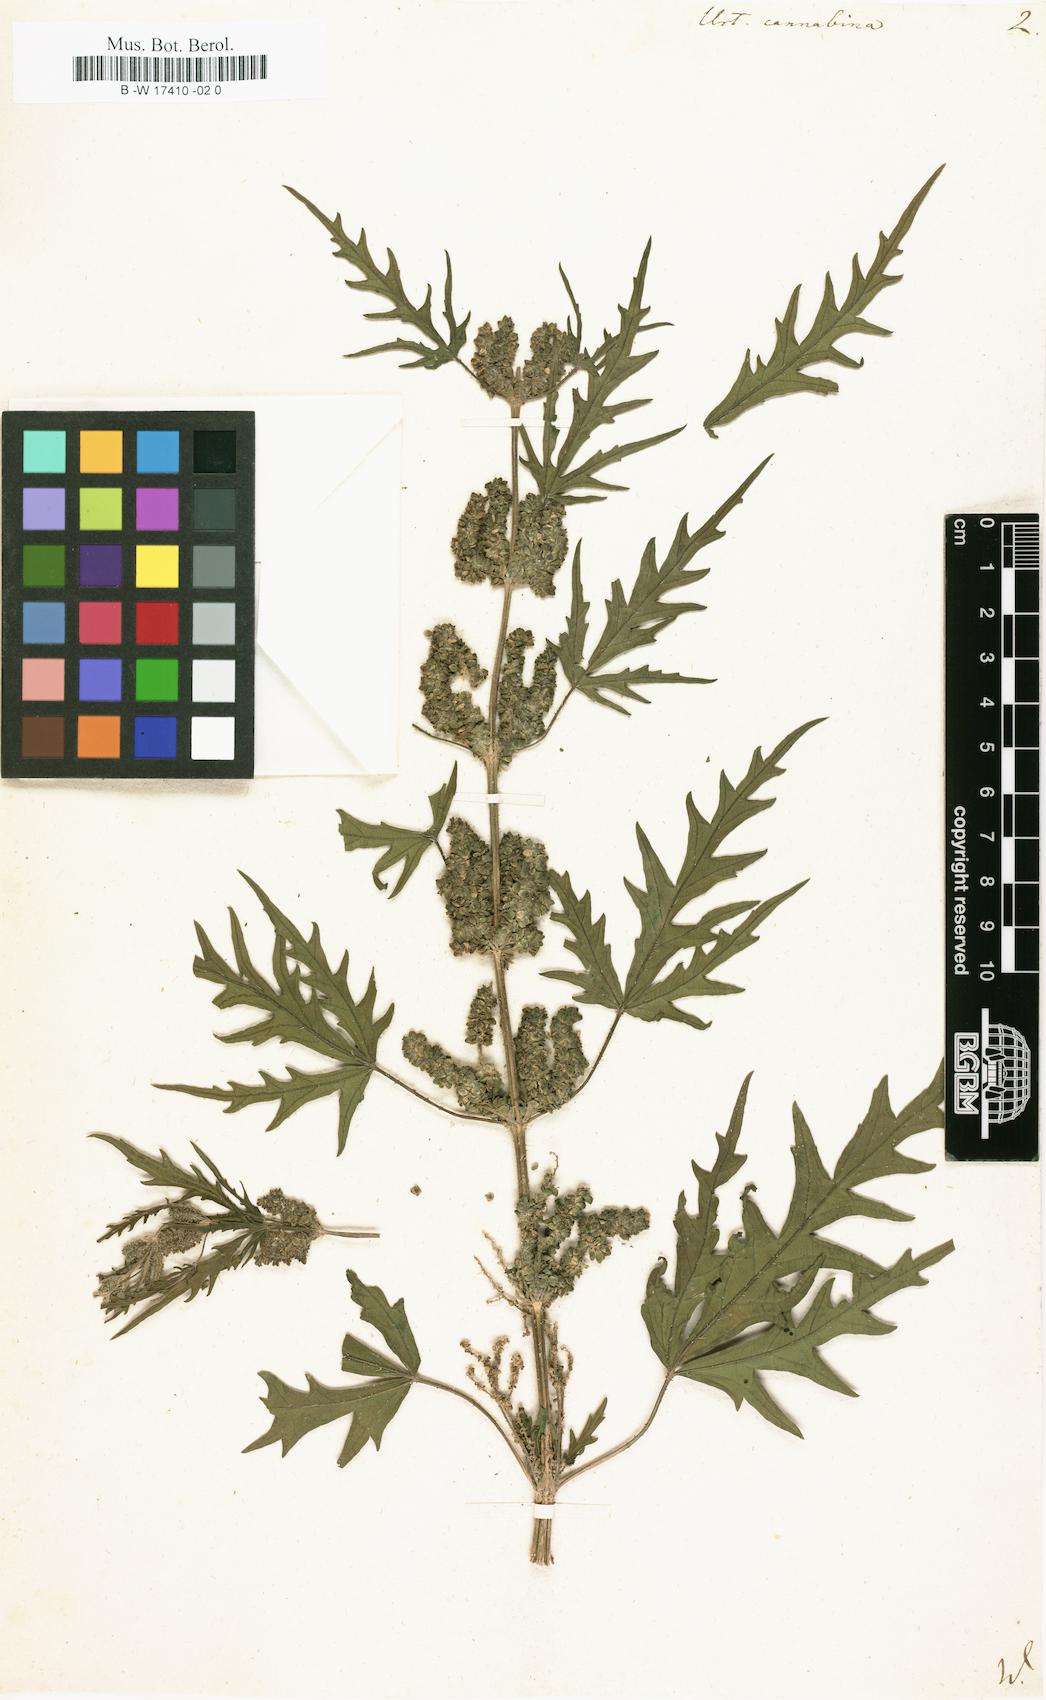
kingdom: Plantae
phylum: Tracheophyta
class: Magnoliopsida
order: Rosales
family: Urticaceae
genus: Urtica
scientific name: Urtica cannabina
